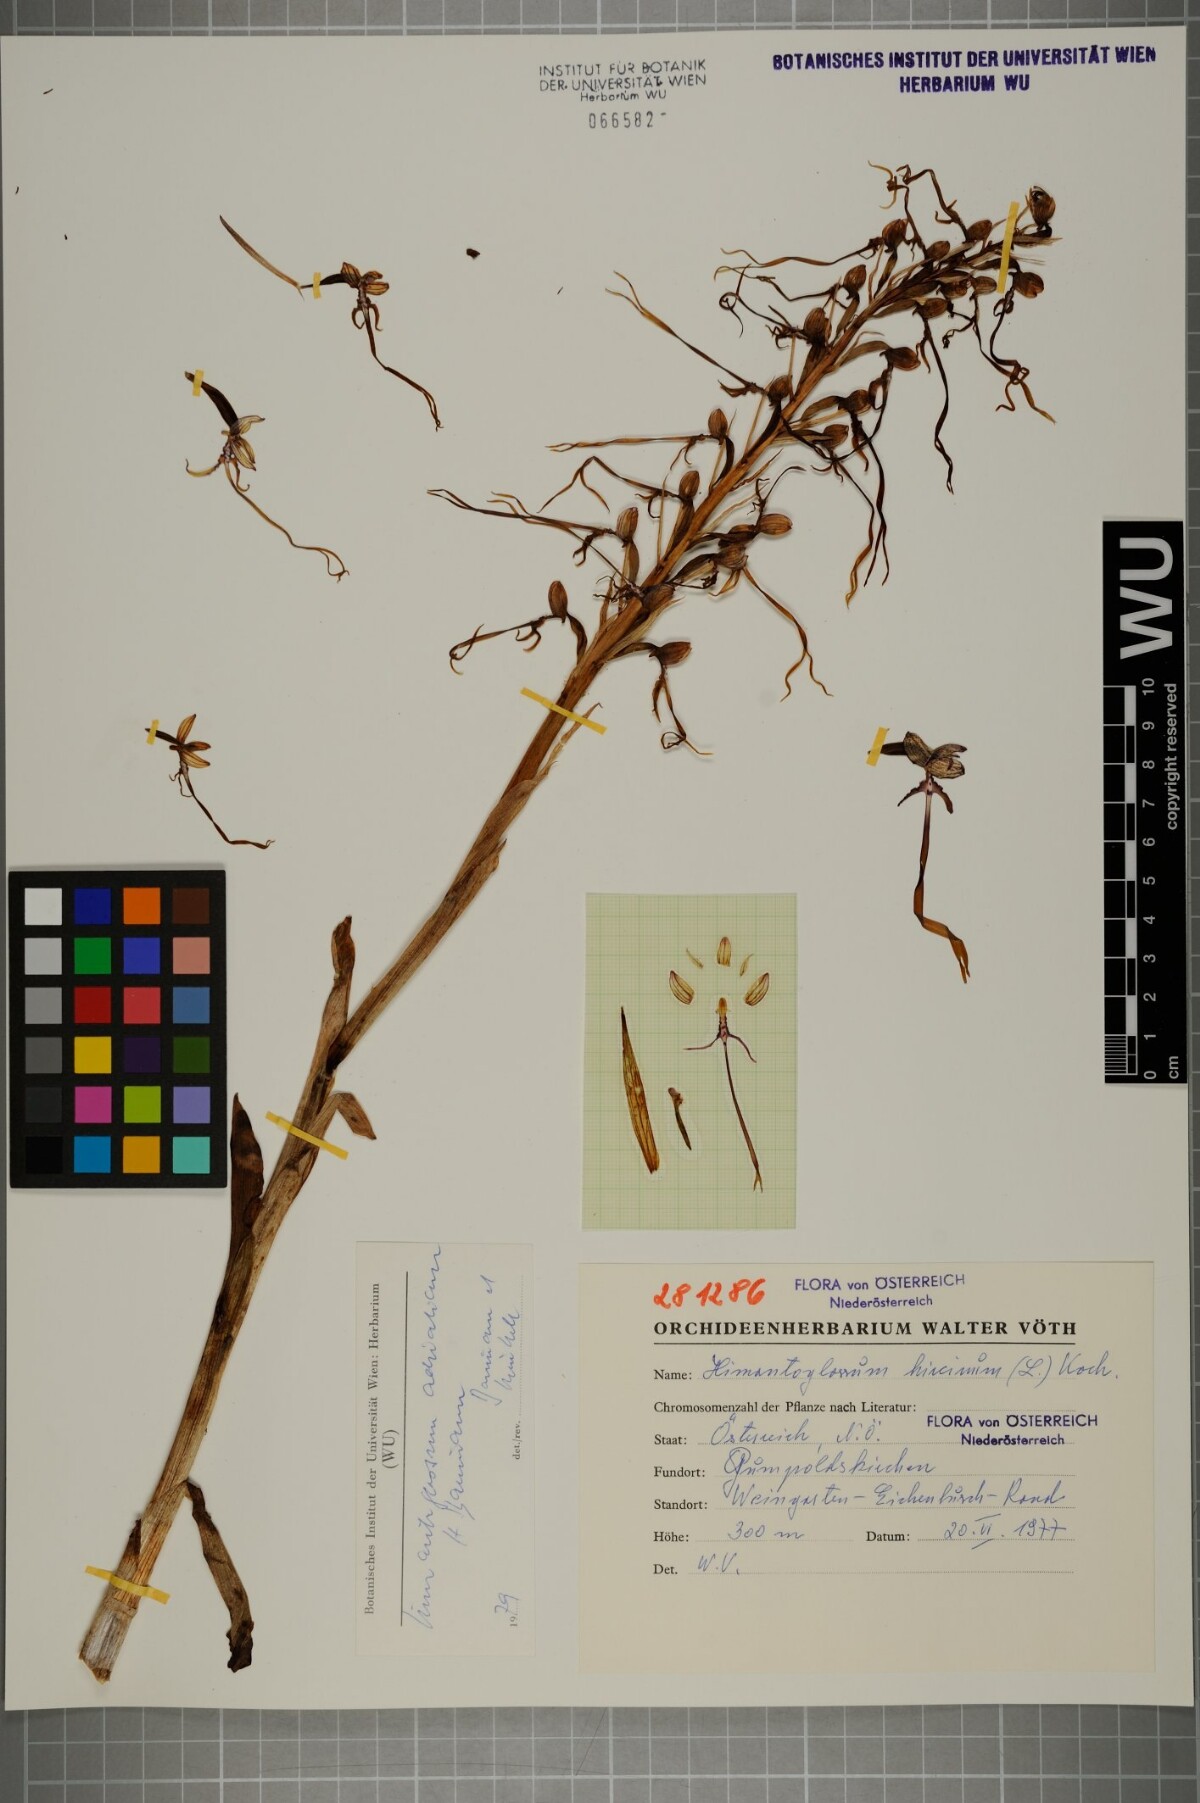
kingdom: Plantae
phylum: Tracheophyta
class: Liliopsida
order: Asparagales
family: Orchidaceae
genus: Himantoglossum
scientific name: Himantoglossum adriaticum
